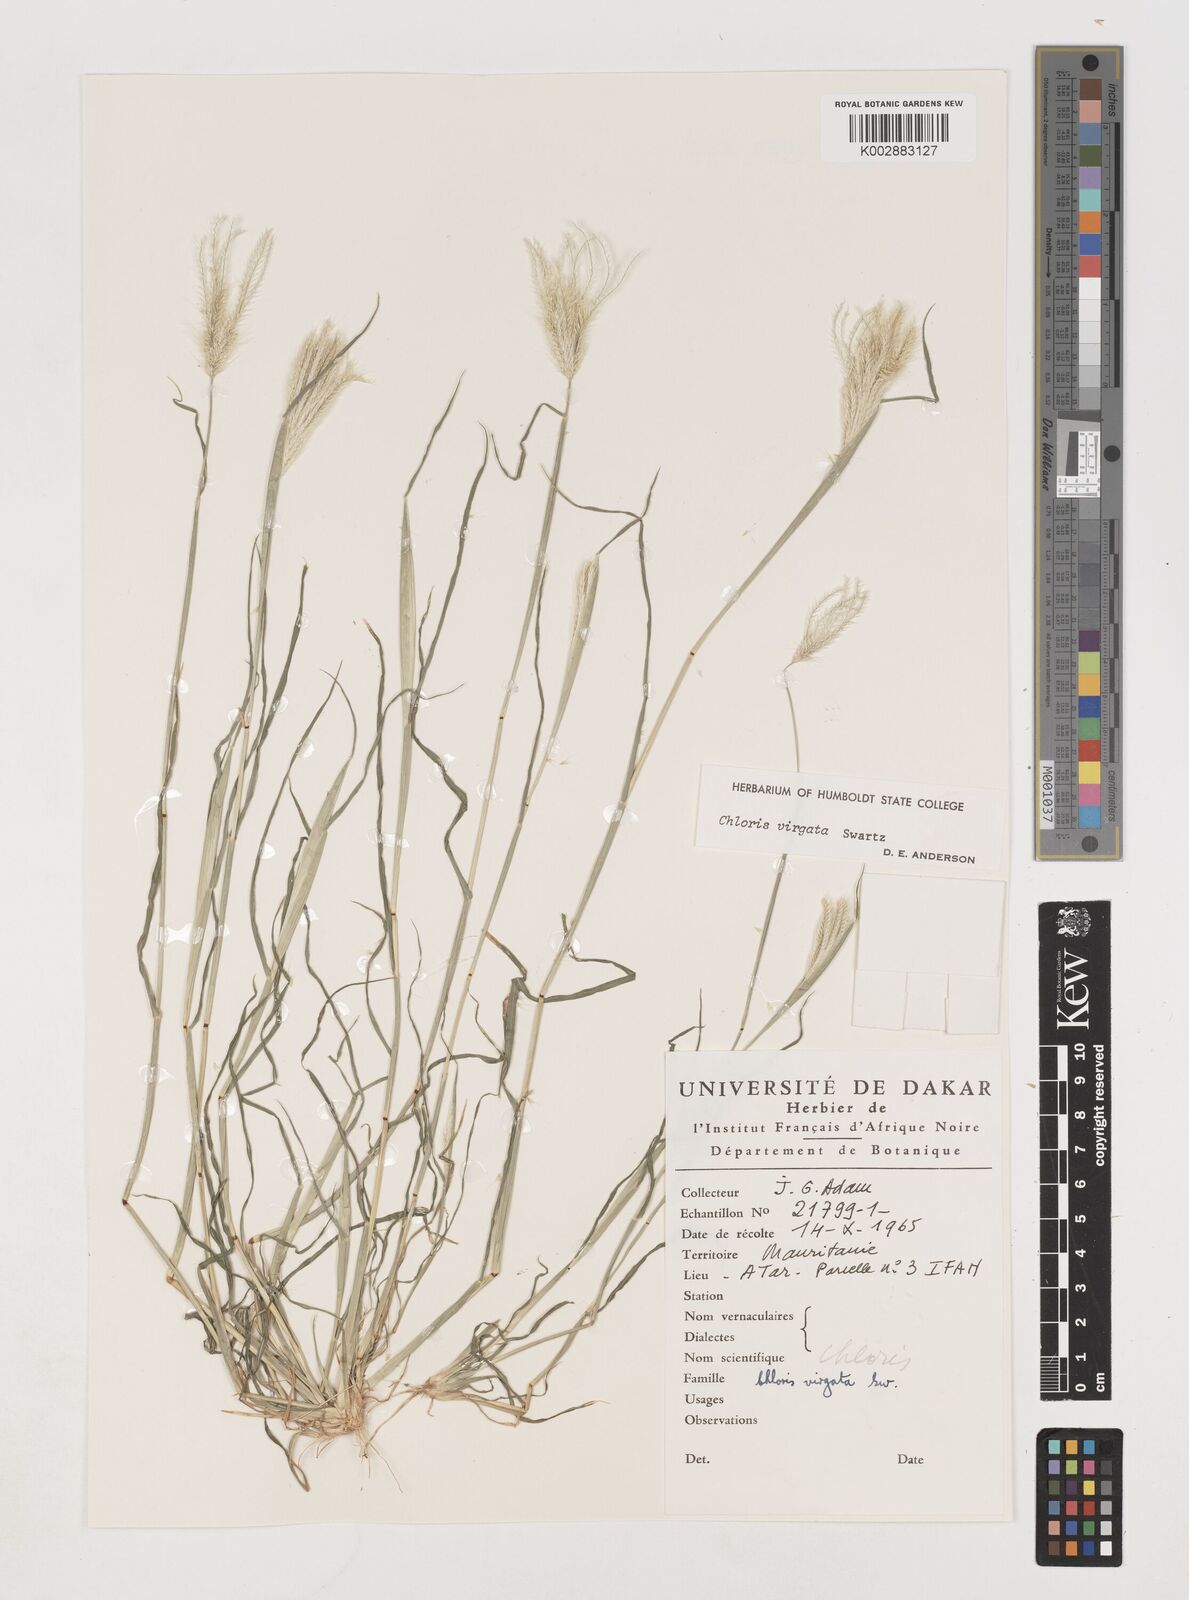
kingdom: Plantae
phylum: Tracheophyta
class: Liliopsida
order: Poales
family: Poaceae
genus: Chloris
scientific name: Chloris virgata
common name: Feathery rhodes-grass
